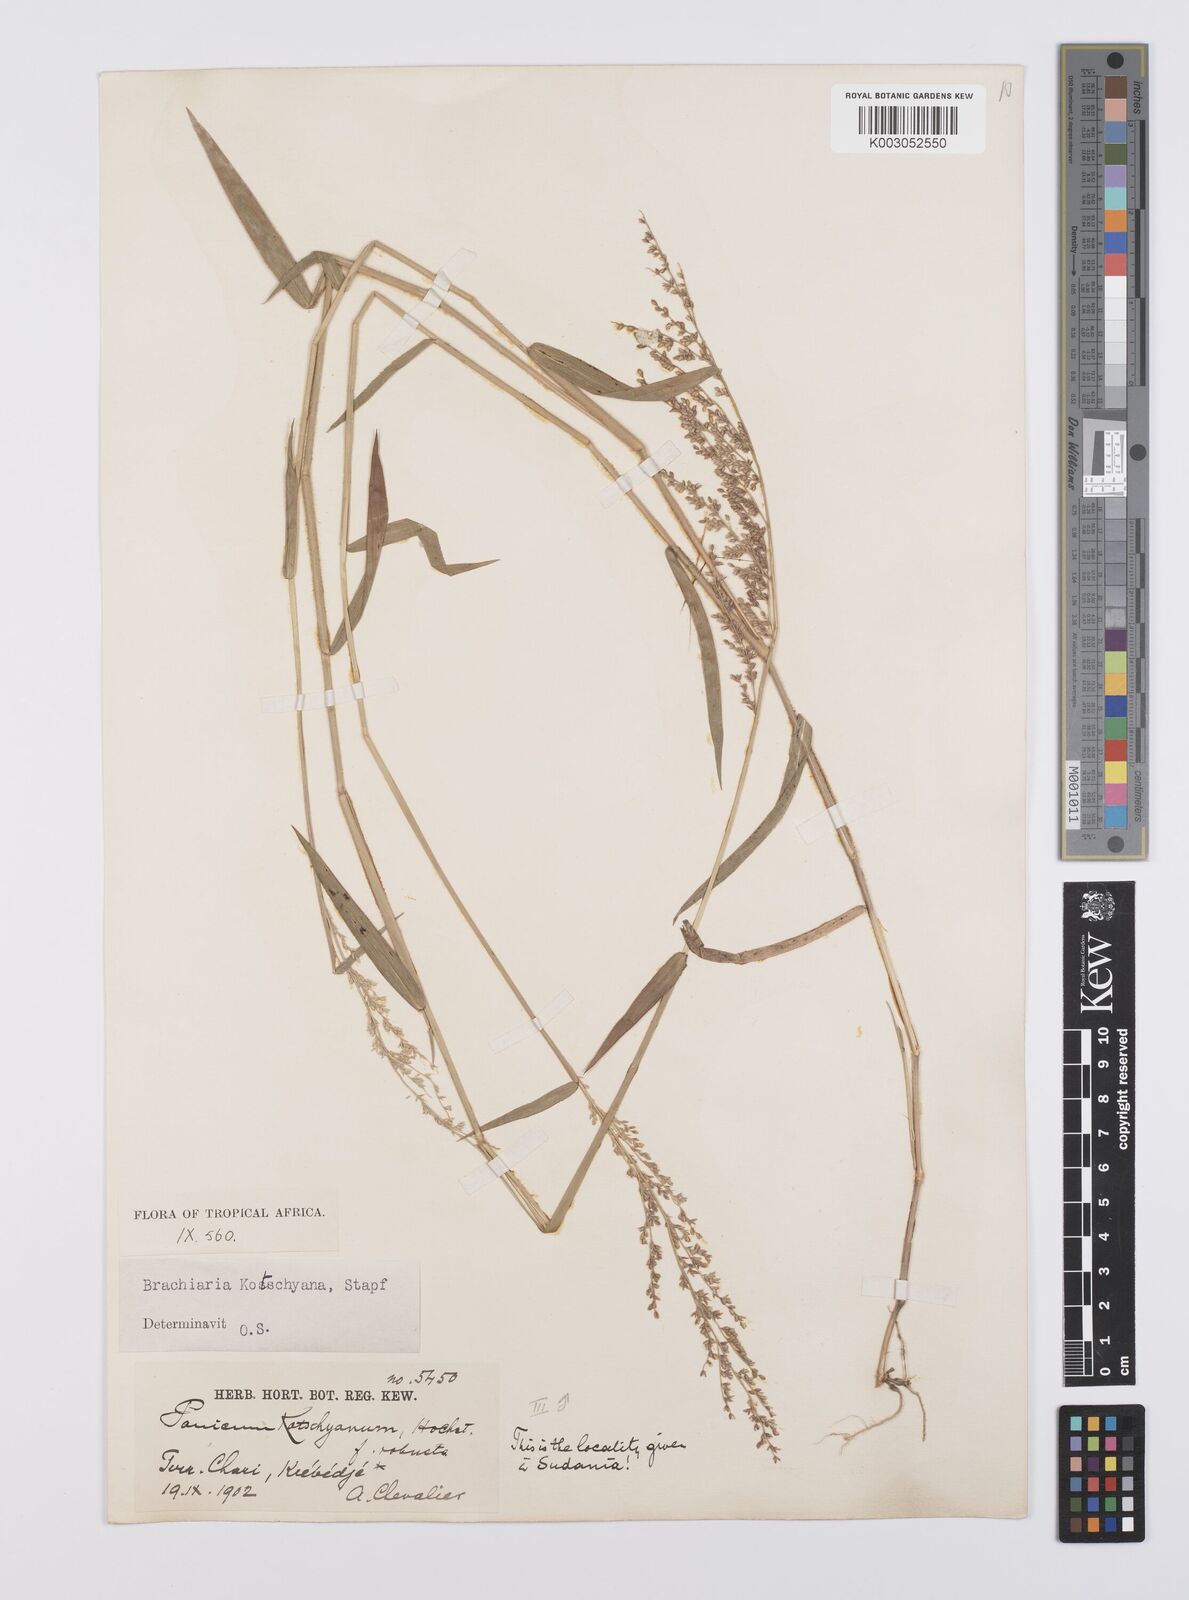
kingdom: Plantae
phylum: Tracheophyta
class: Liliopsida
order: Poales
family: Poaceae
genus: Urochloa
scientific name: Urochloa comata
